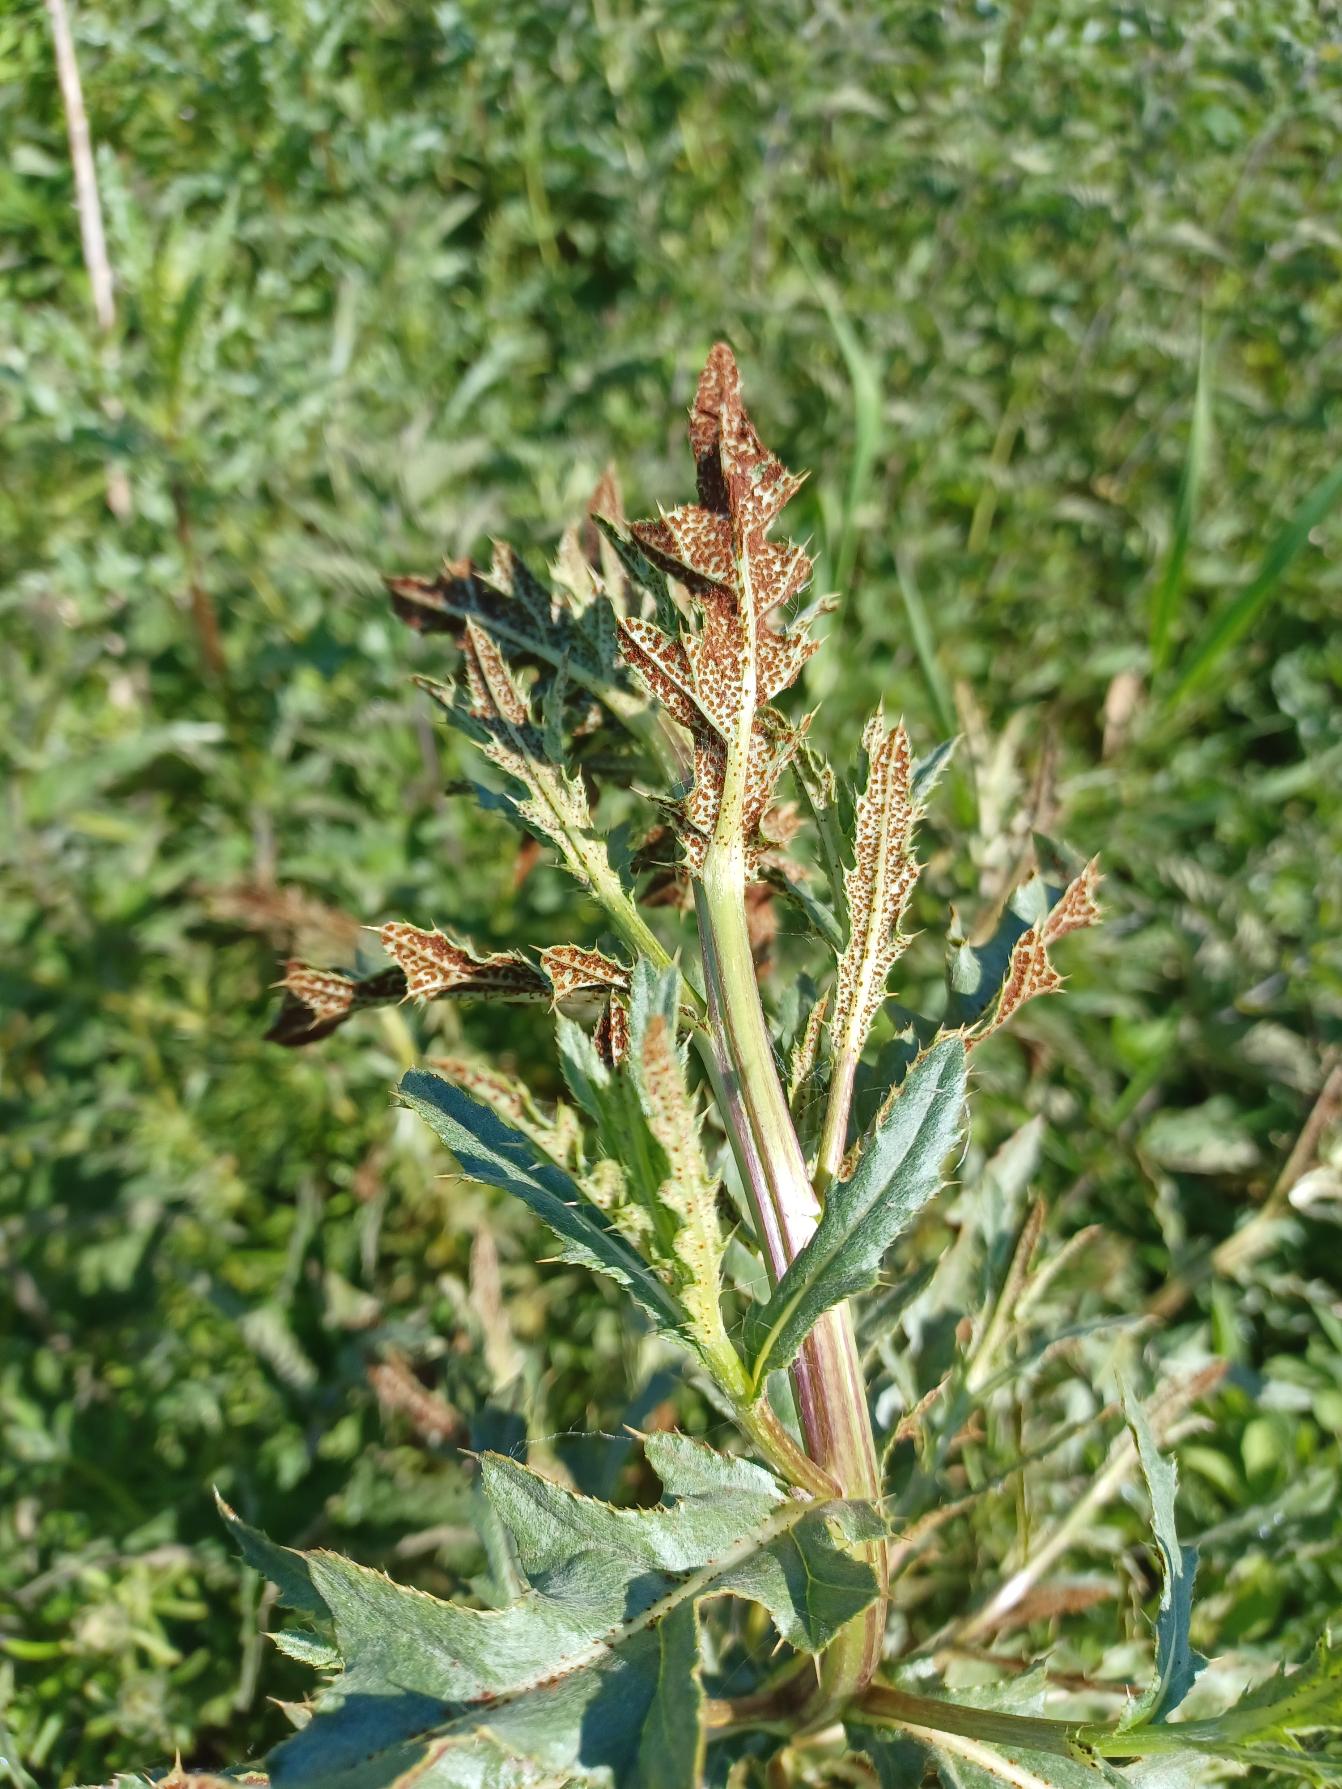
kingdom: Fungi
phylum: Basidiomycota
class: Pucciniomycetes
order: Pucciniales
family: Pucciniaceae
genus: Puccinia
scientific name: Puccinia suaveolens
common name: Tidsel-tvecellerust
